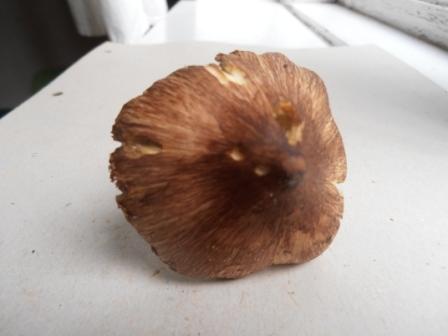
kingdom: Fungi
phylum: Basidiomycota
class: Agaricomycetes
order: Agaricales
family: Inocybaceae
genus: Inosperma
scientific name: Inosperma
